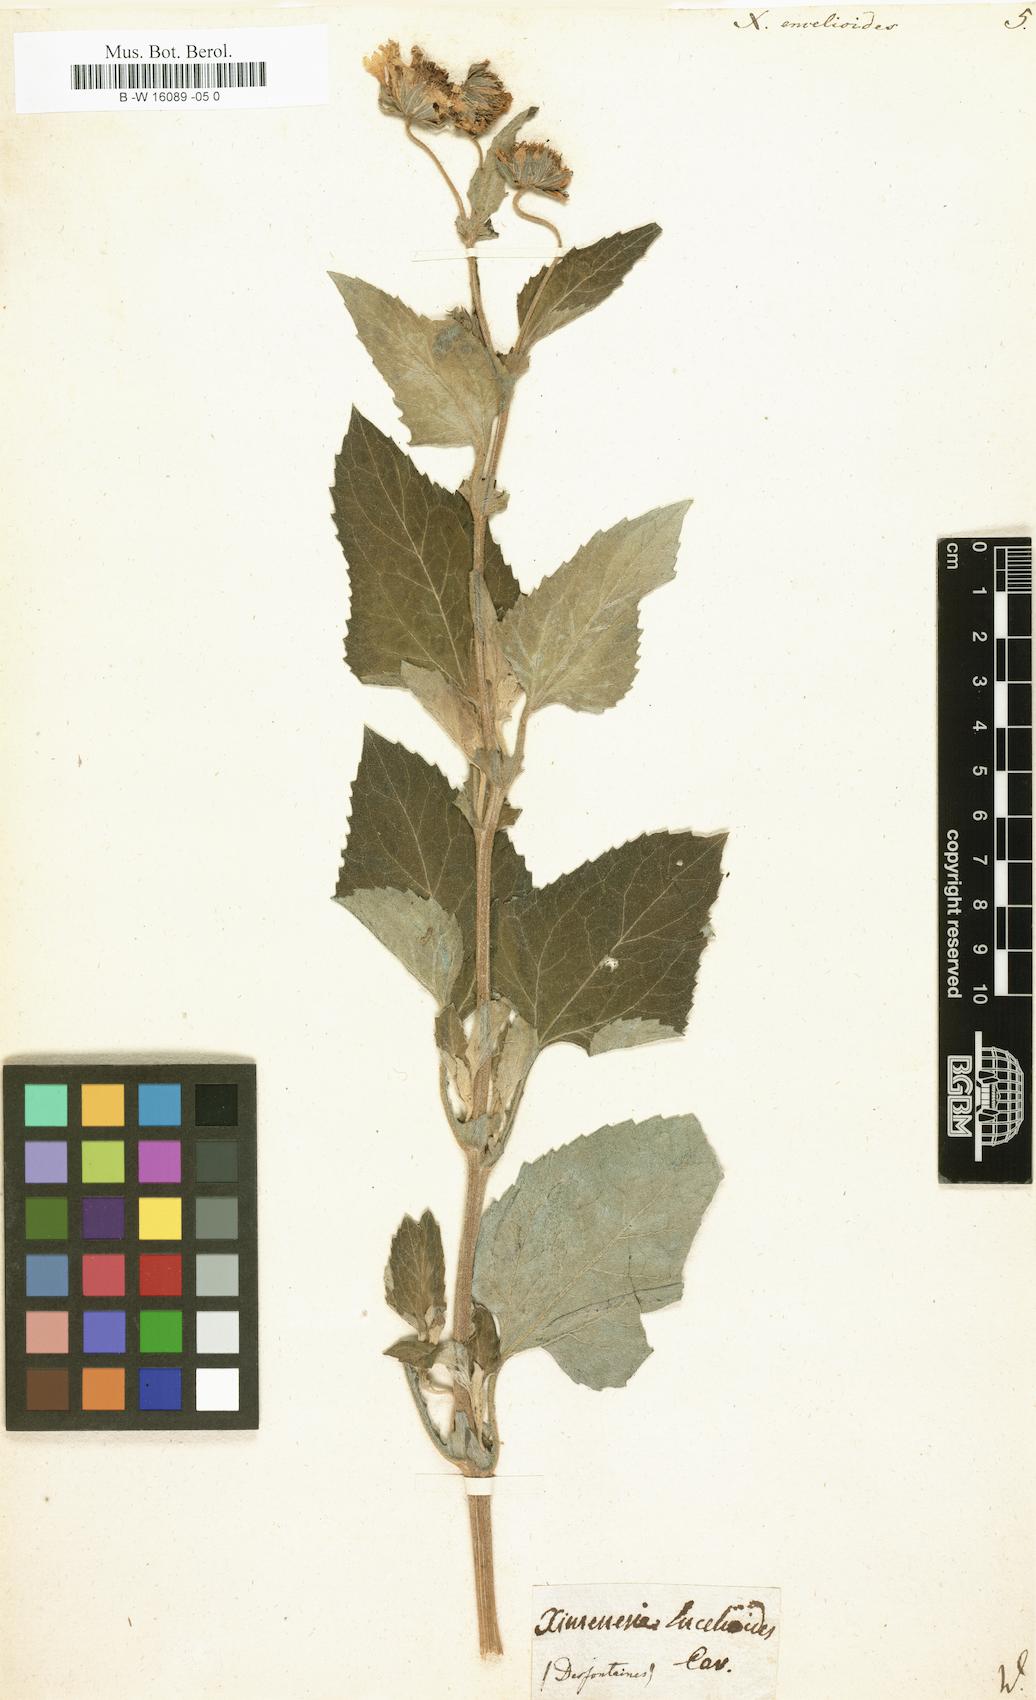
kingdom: Plantae
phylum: Tracheophyta
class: Magnoliopsida
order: Asterales
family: Asteraceae
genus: Verbesina
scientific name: Verbesina encelioides
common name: Golden crownbeard
